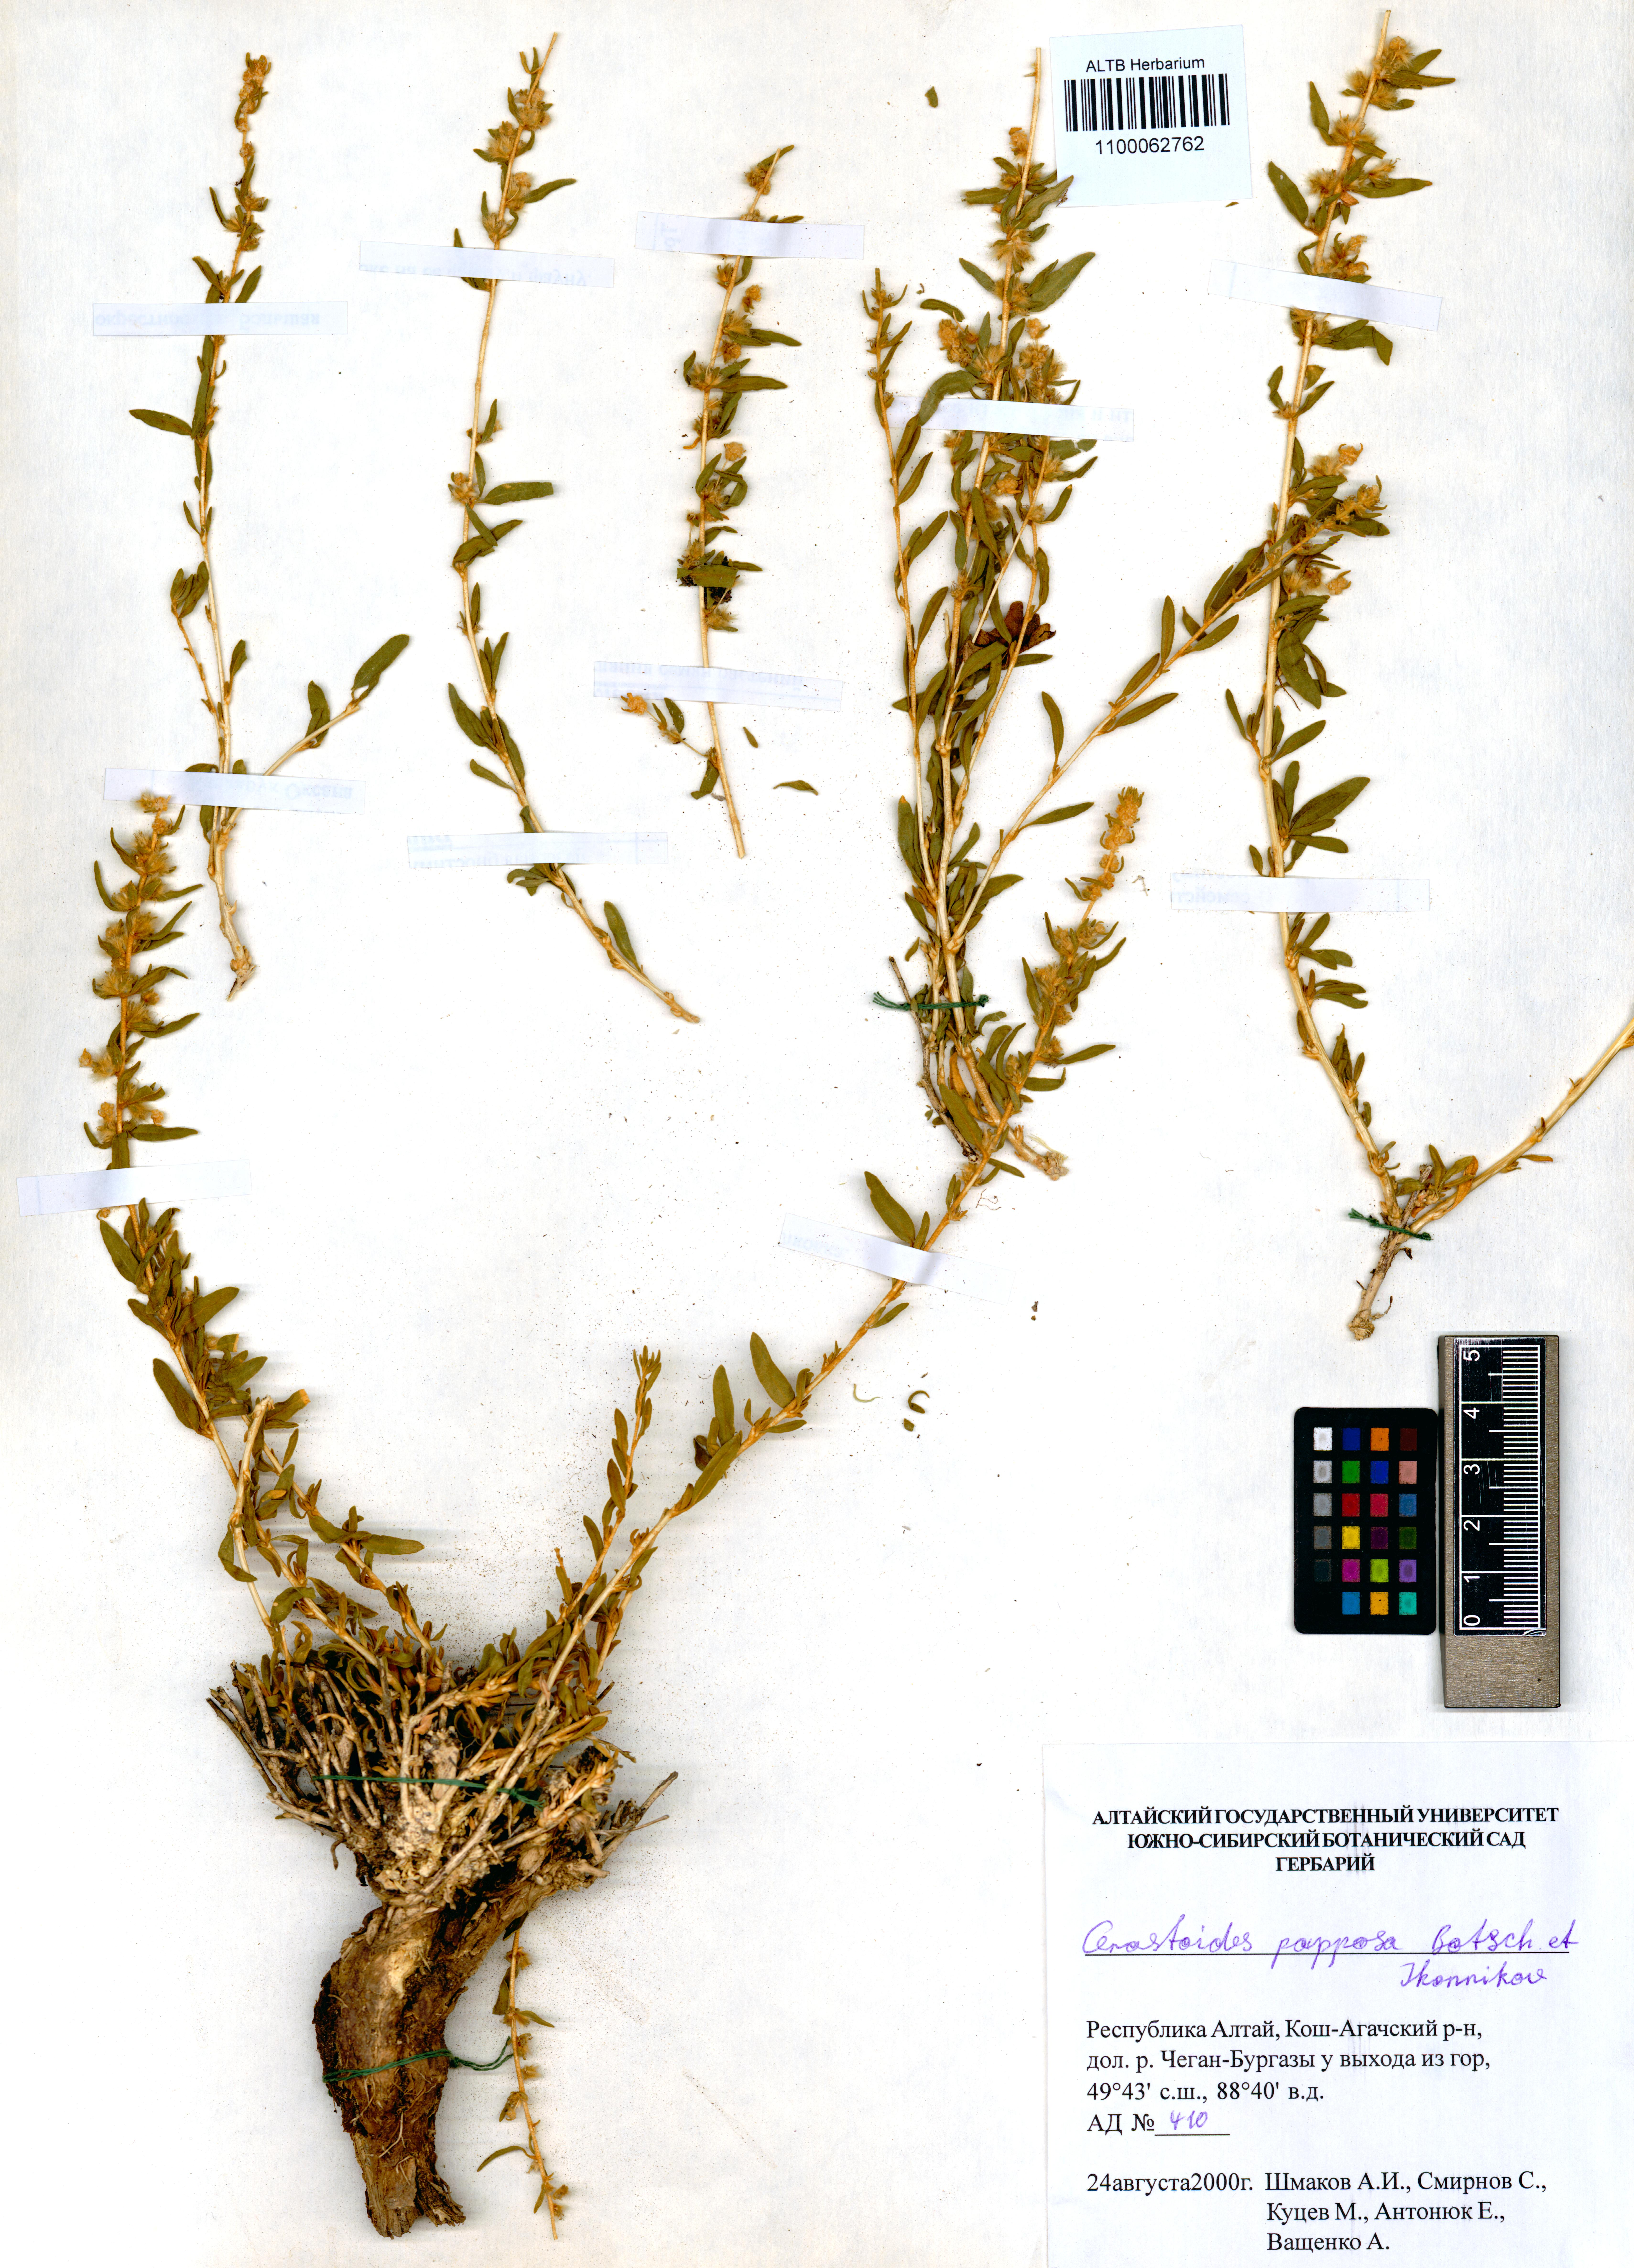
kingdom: Plantae
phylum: Tracheophyta
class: Magnoliopsida
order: Caryophyllales
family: Amaranthaceae
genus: Krascheninnikovia
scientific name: Krascheninnikovia ceratoides
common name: Pamirian winterfat
